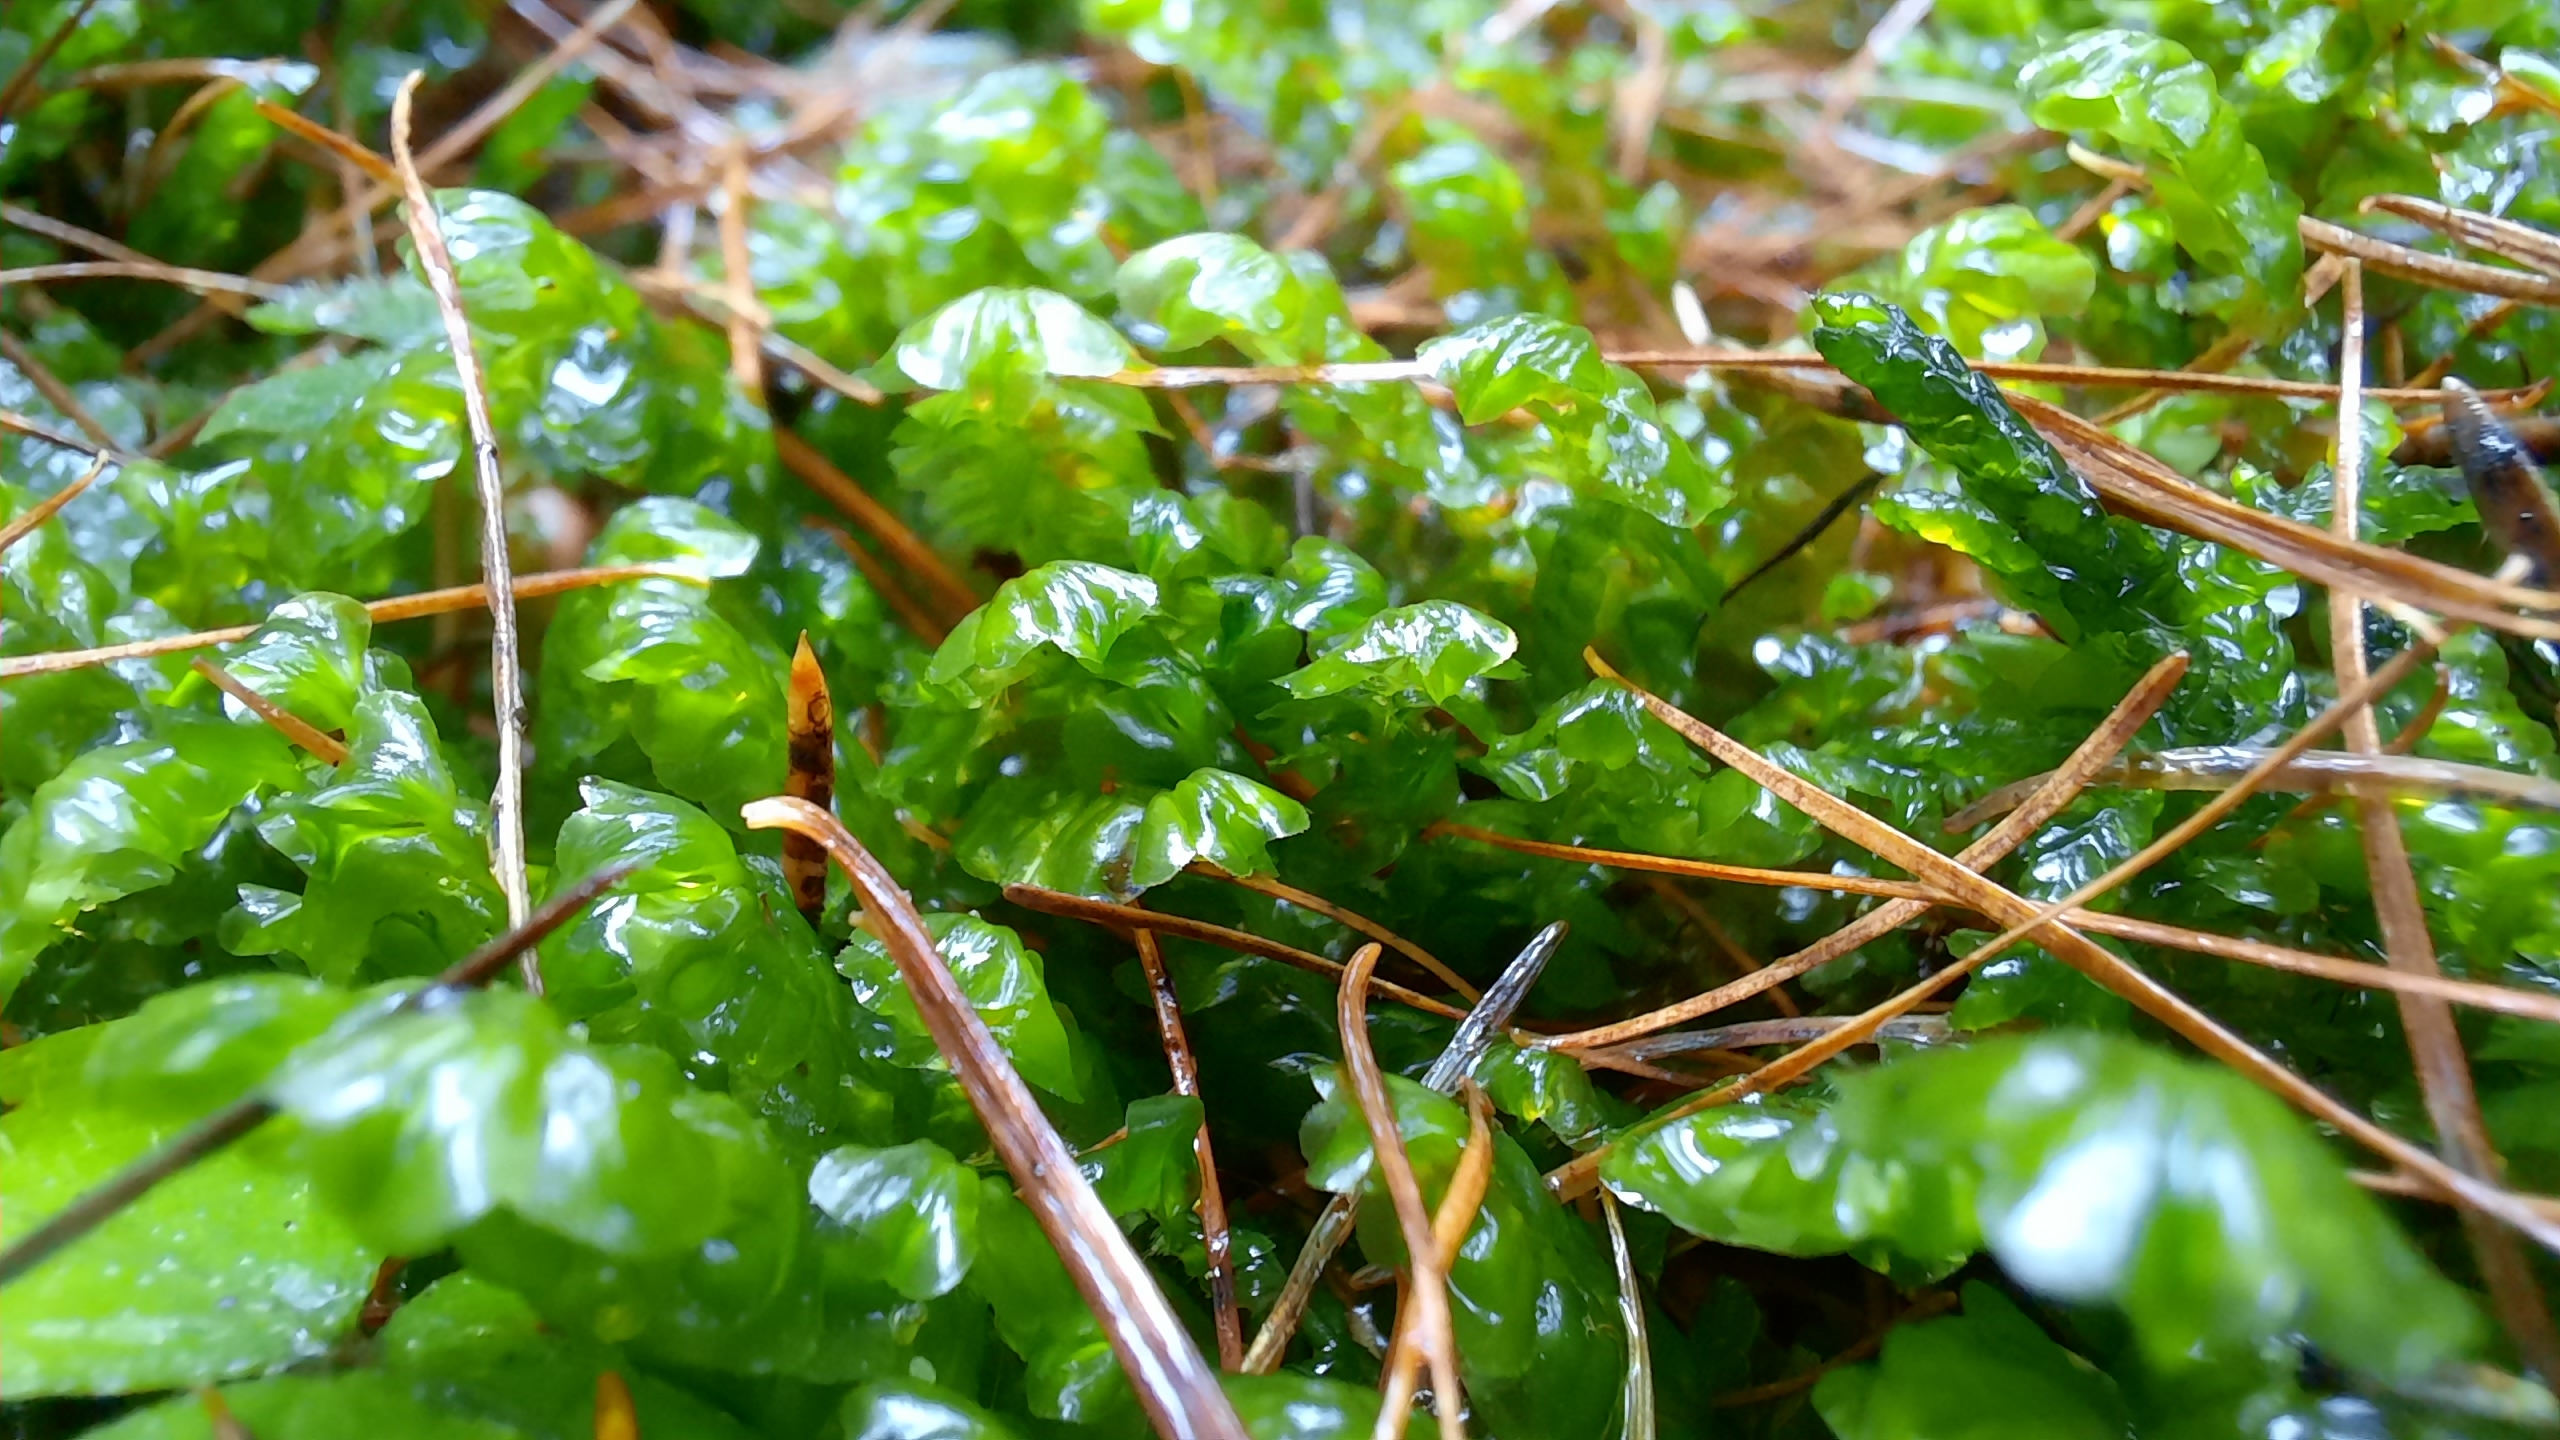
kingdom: Plantae
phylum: Marchantiophyta
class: Jungermanniopsida
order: Jungermanniales
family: Plagiochilaceae
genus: Plagiochila
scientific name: Plagiochila asplenioides
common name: Radeløv-hindeblad
